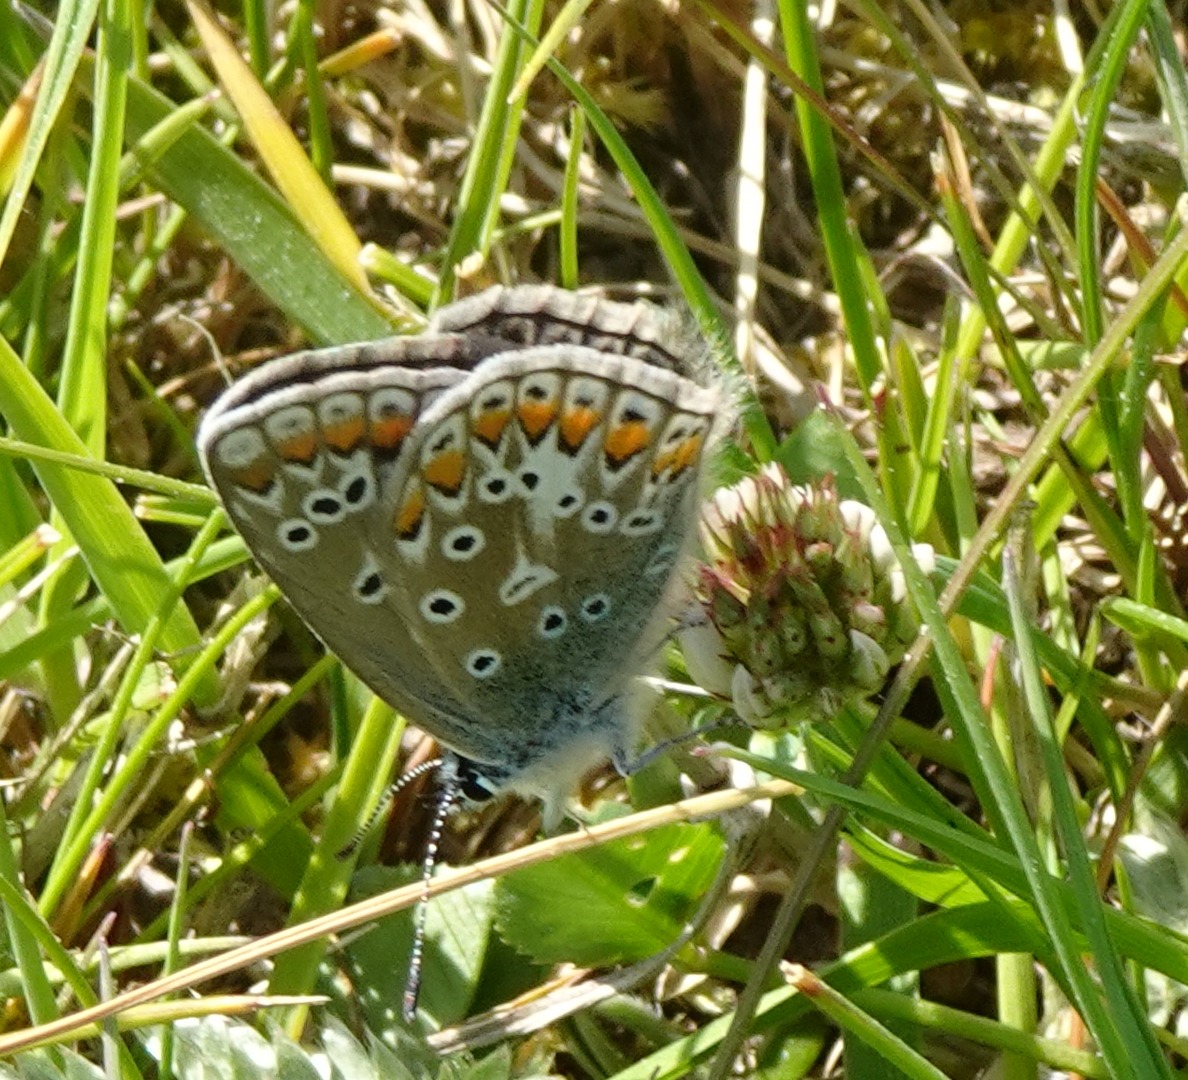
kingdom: Animalia
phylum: Arthropoda
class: Insecta
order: Lepidoptera
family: Lycaenidae
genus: Polyommatus
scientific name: Polyommatus icarus
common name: Almindelig blåfugl
